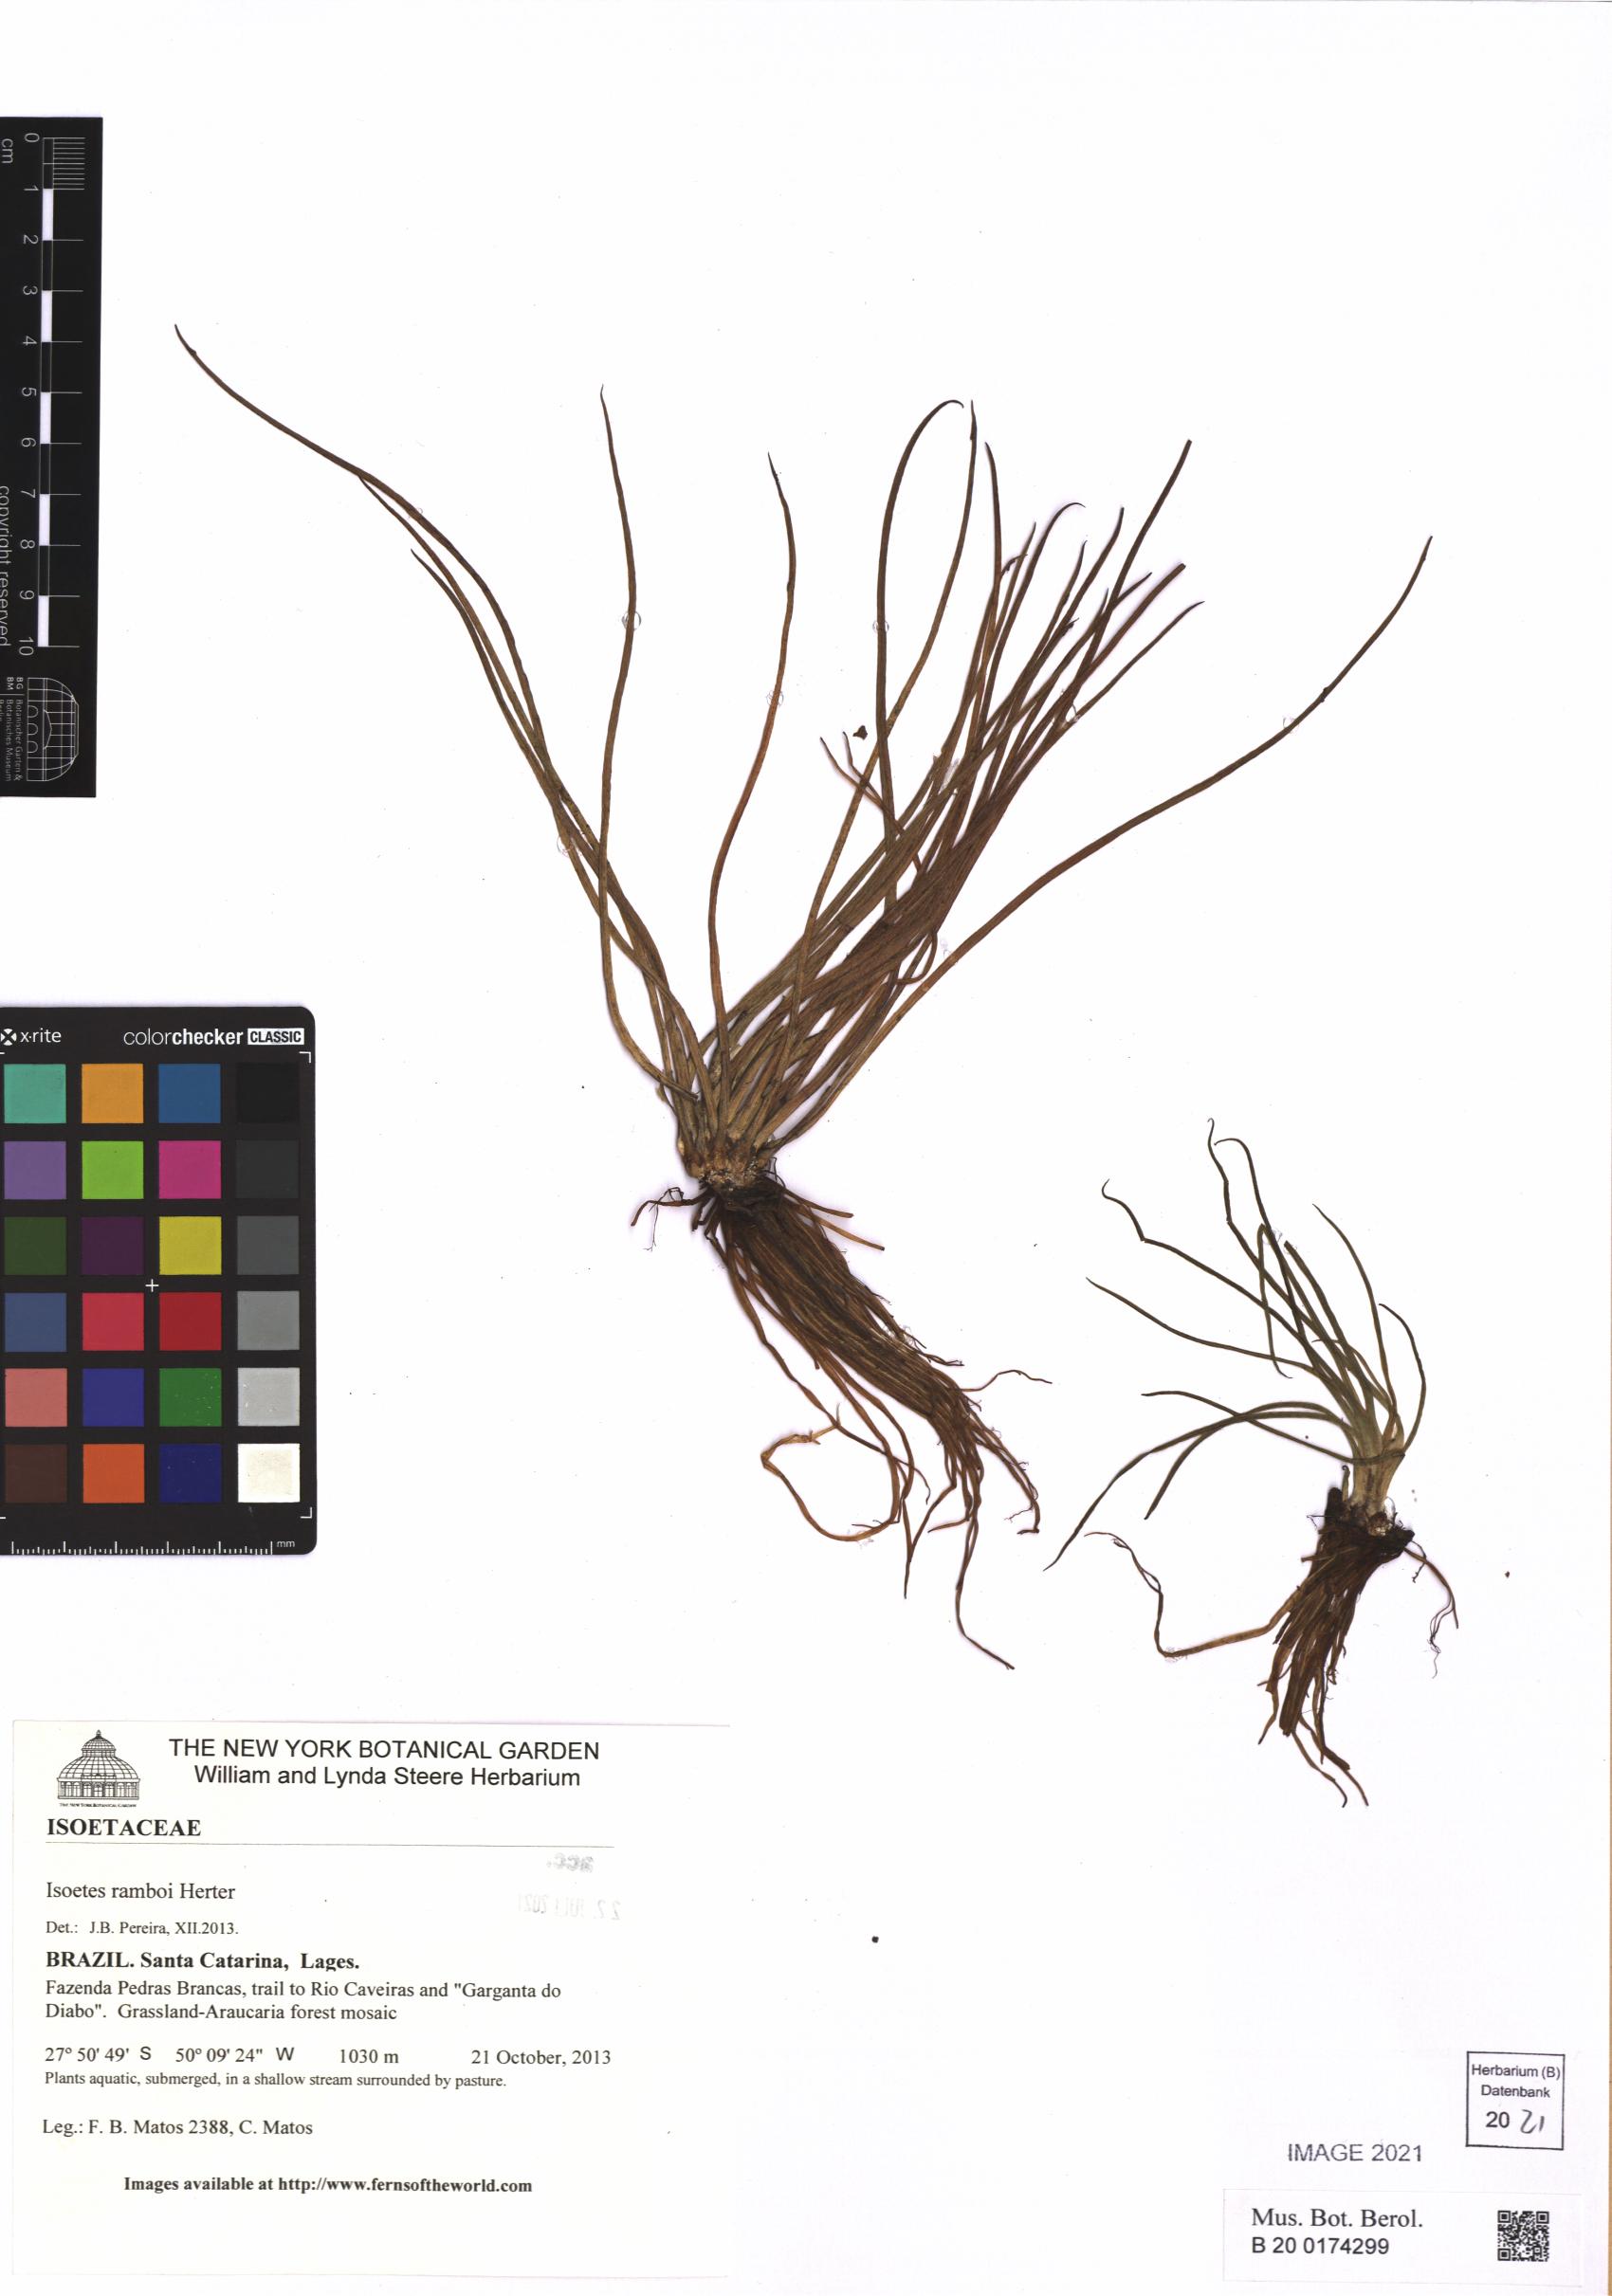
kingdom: Plantae
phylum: Tracheophyta
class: Lycopodiopsida
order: Isoetales
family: Isoetaceae
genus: Isoetes
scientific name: Isoetes ramboi
